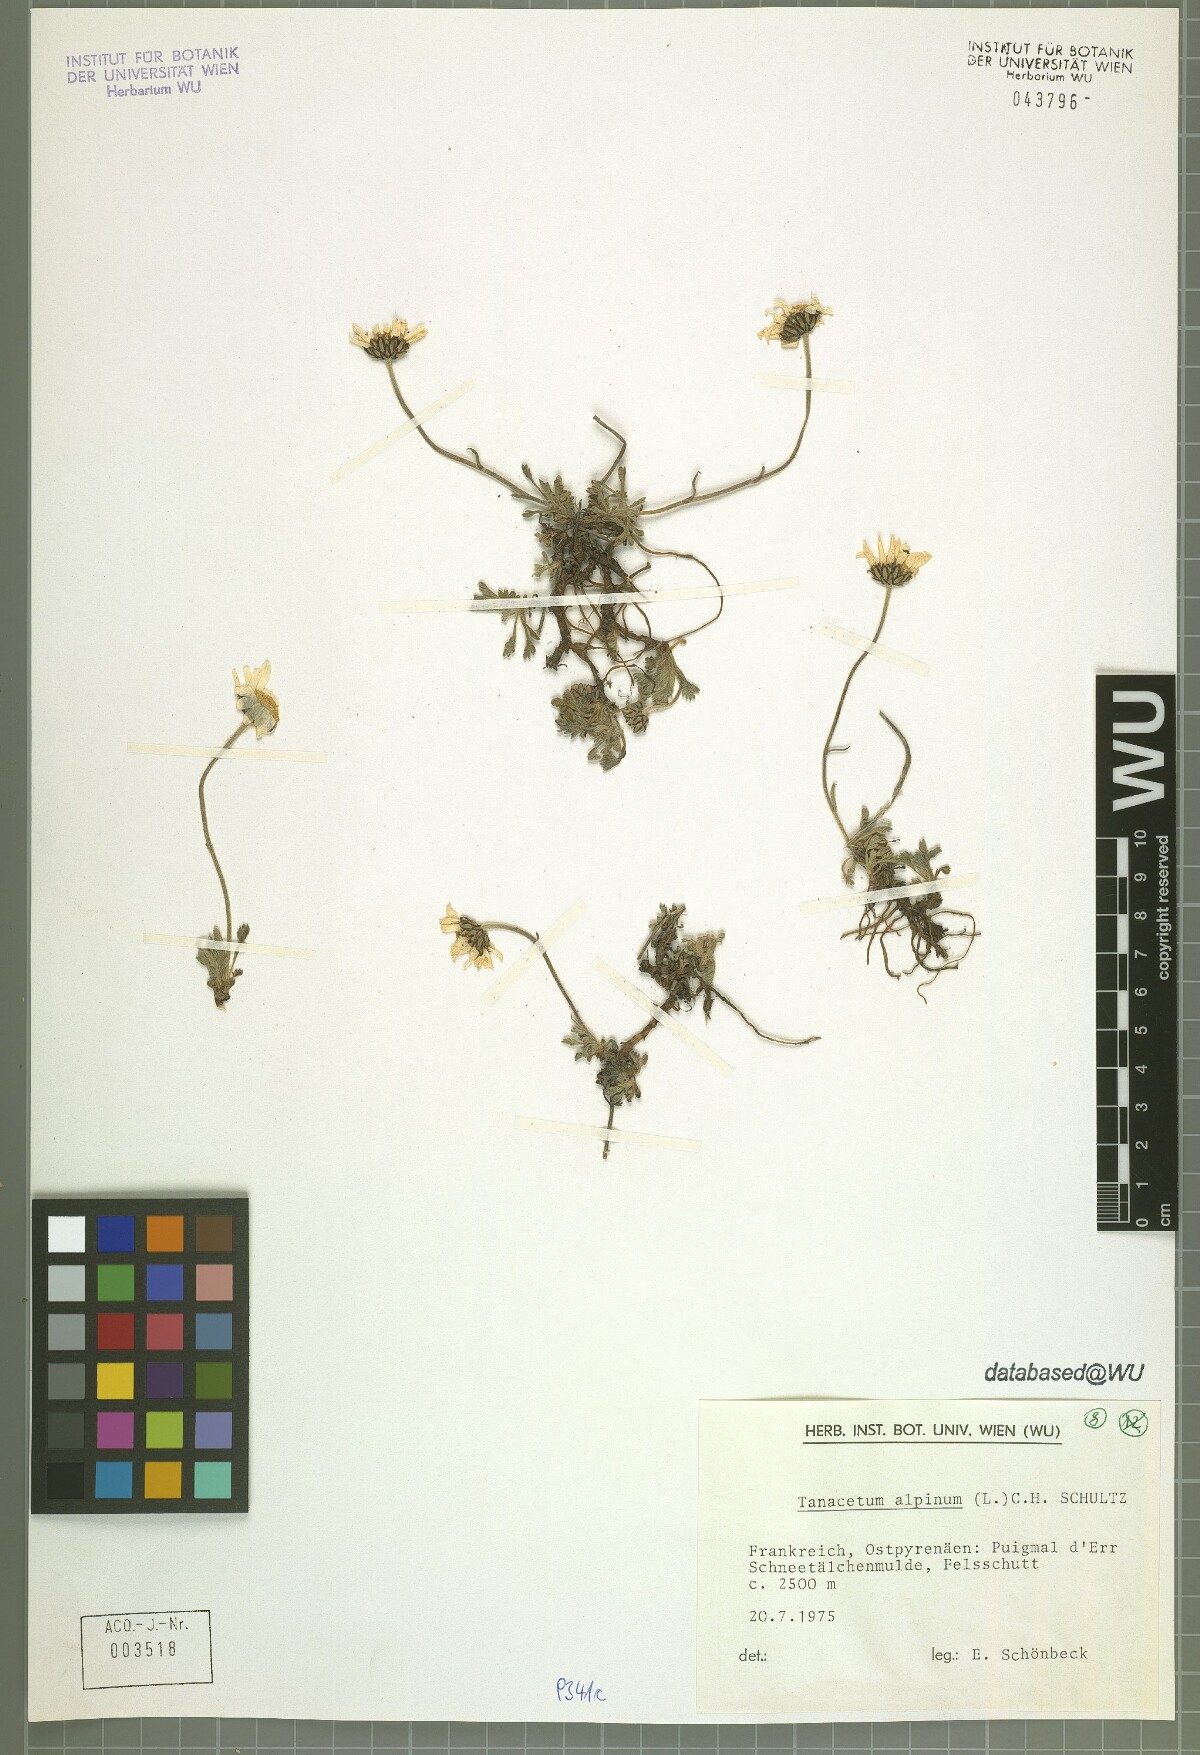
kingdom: Plantae
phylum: Tracheophyta
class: Magnoliopsida
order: Asterales
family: Asteraceae
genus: Leucanthemopsis
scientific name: Leucanthemopsis alpina
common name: Alpine moon daisy
